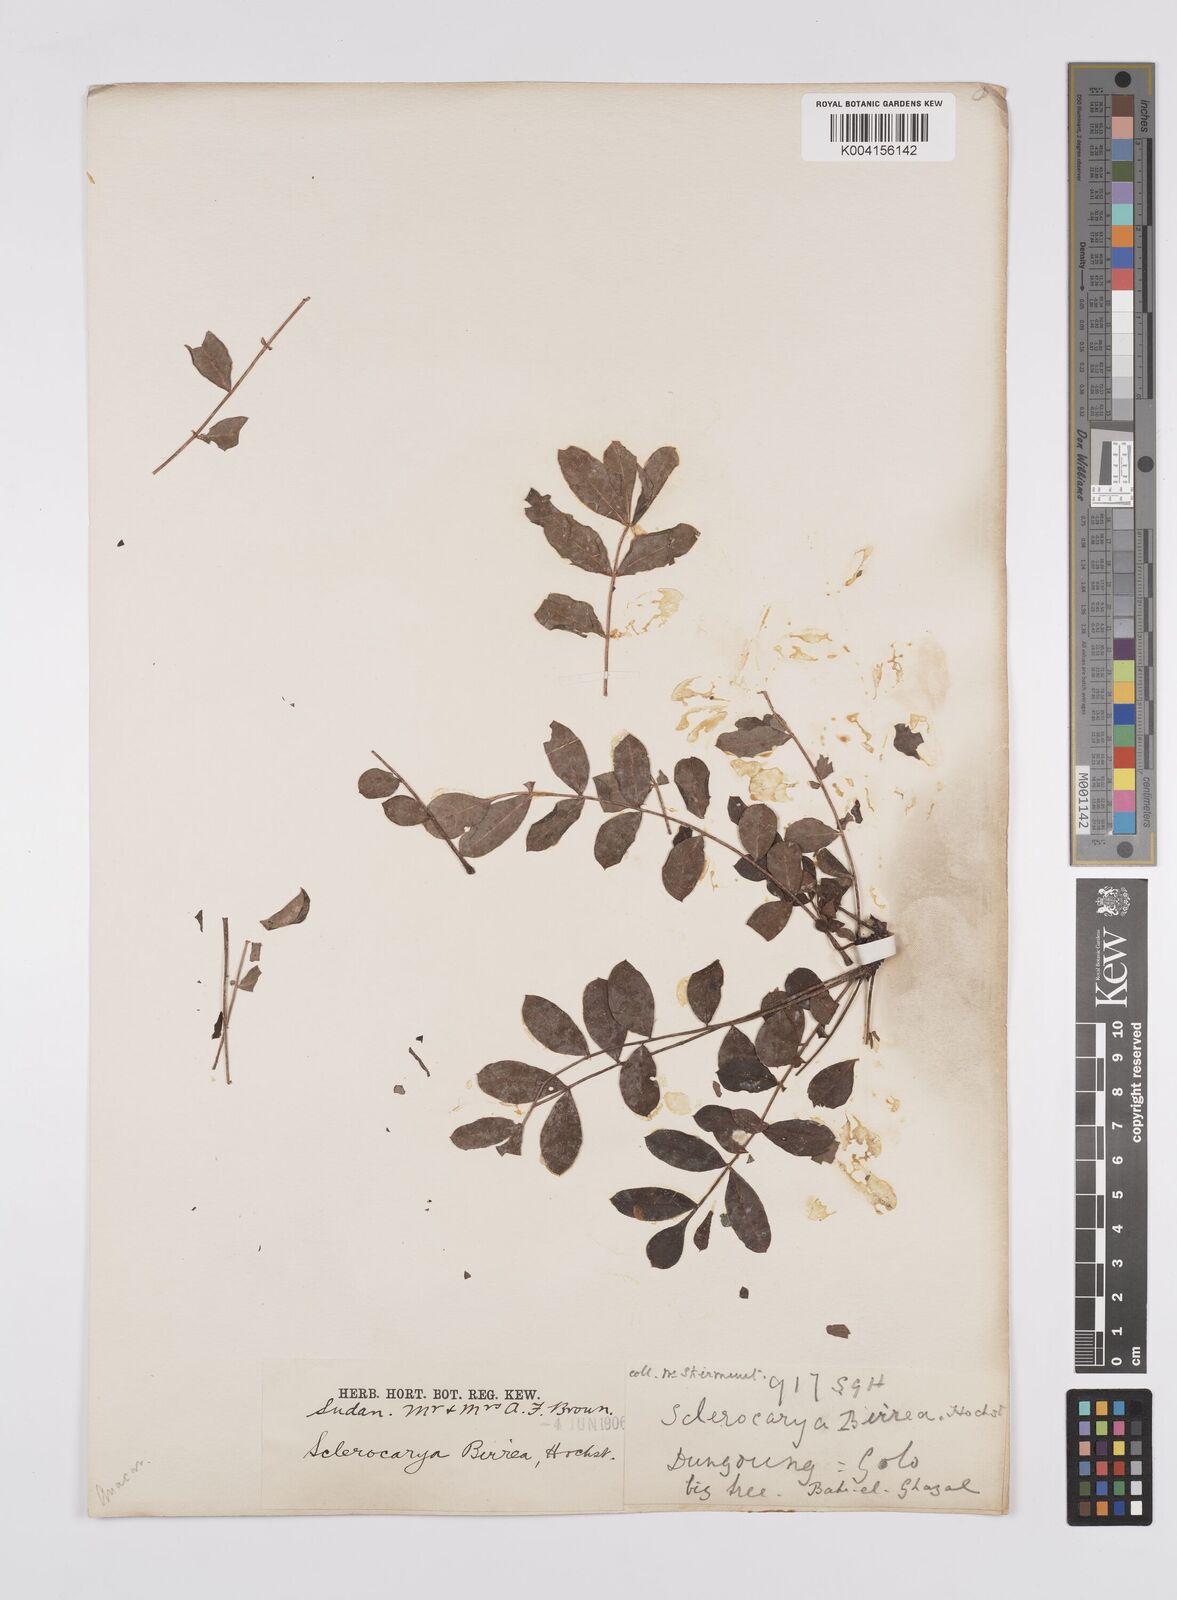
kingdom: Plantae
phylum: Tracheophyta
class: Magnoliopsida
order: Sapindales
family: Anacardiaceae
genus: Sclerocarya
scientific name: Sclerocarya birrea
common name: Marula
